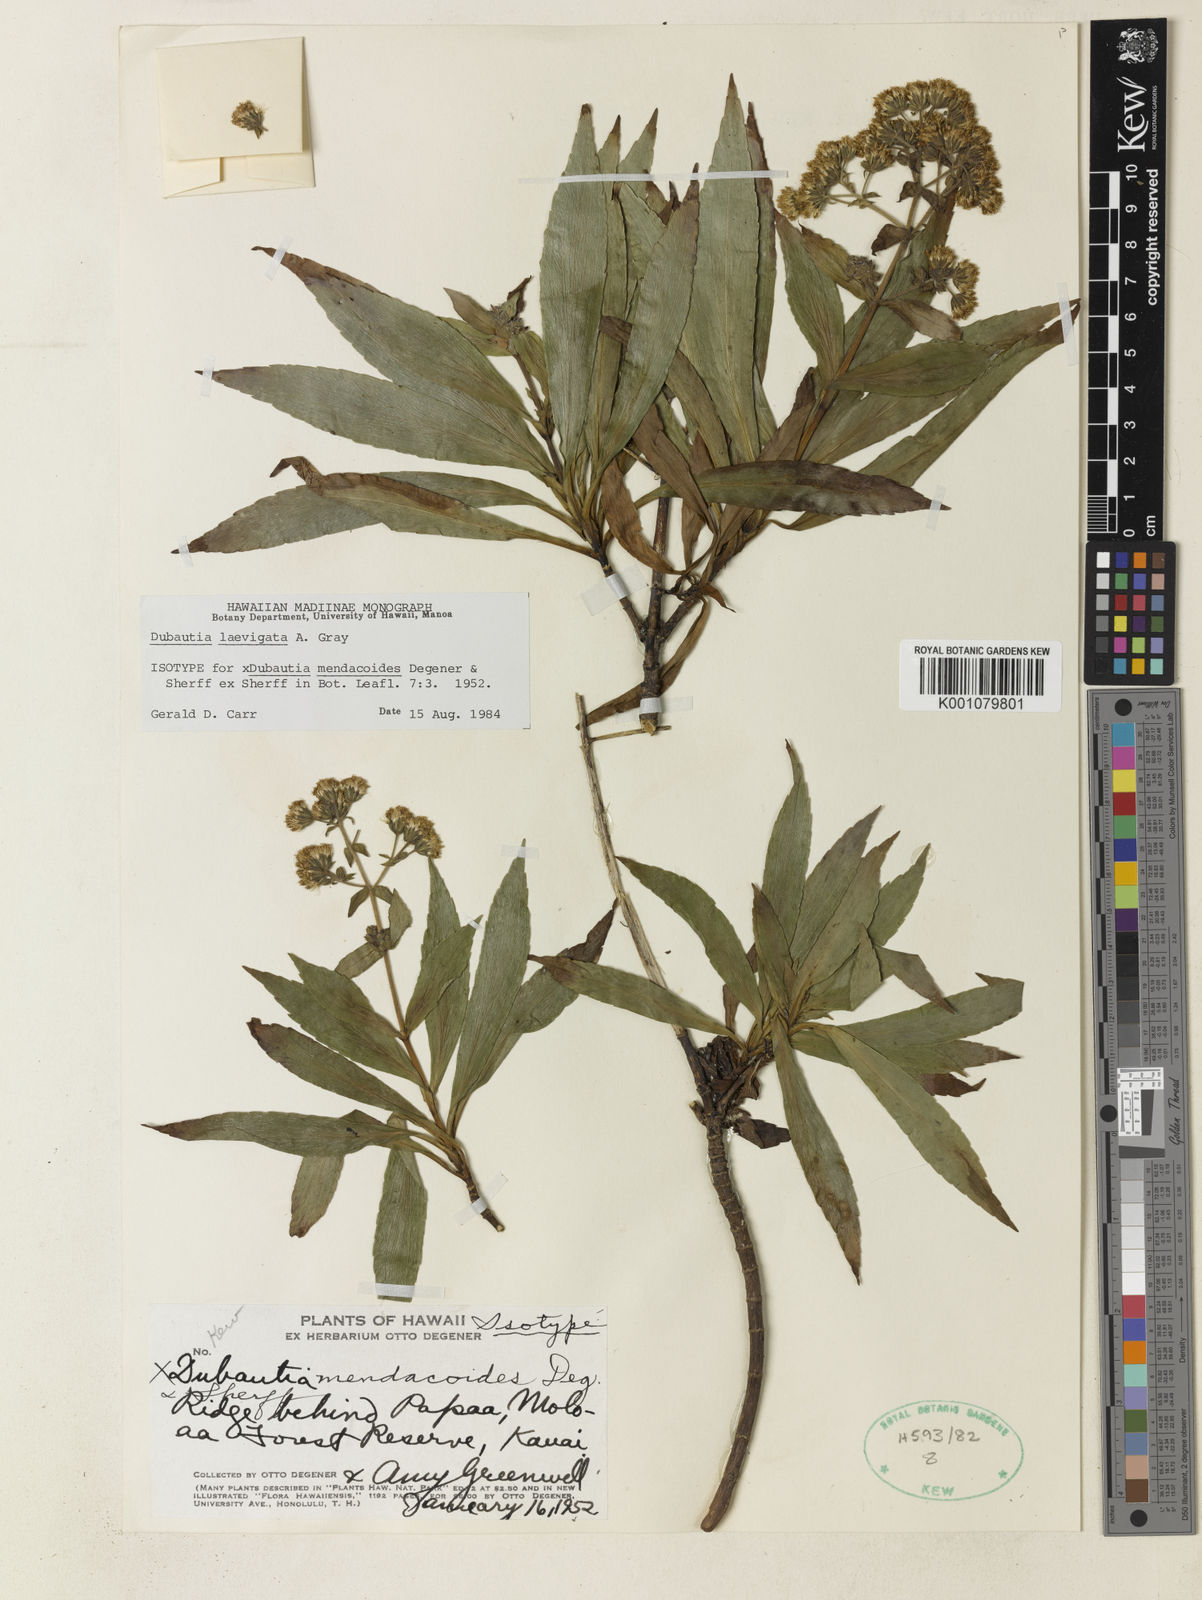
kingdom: Plantae
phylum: Tracheophyta
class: Magnoliopsida
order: Asterales
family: Asteraceae
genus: Dubautia
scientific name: Dubautia laevigata
